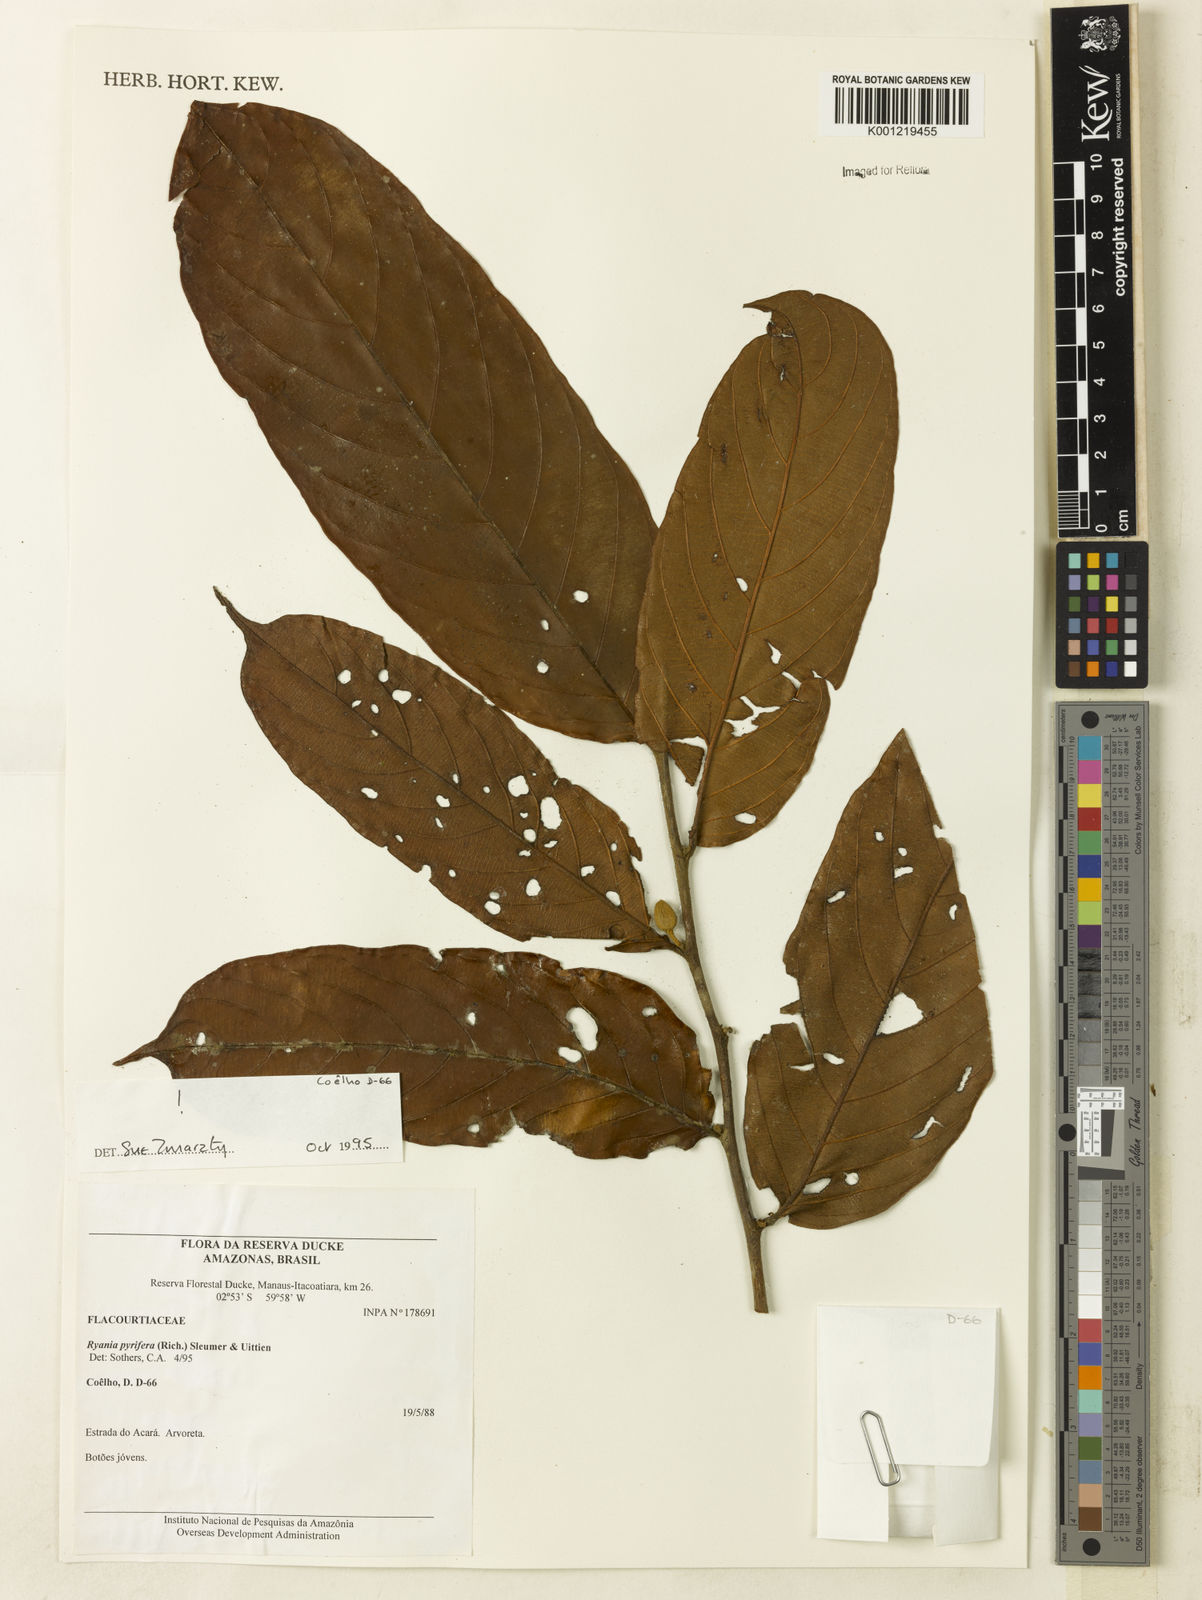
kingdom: Plantae
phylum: Tracheophyta
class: Magnoliopsida
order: Malpighiales
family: Salicaceae
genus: Ryania
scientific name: Ryania pyrifera
